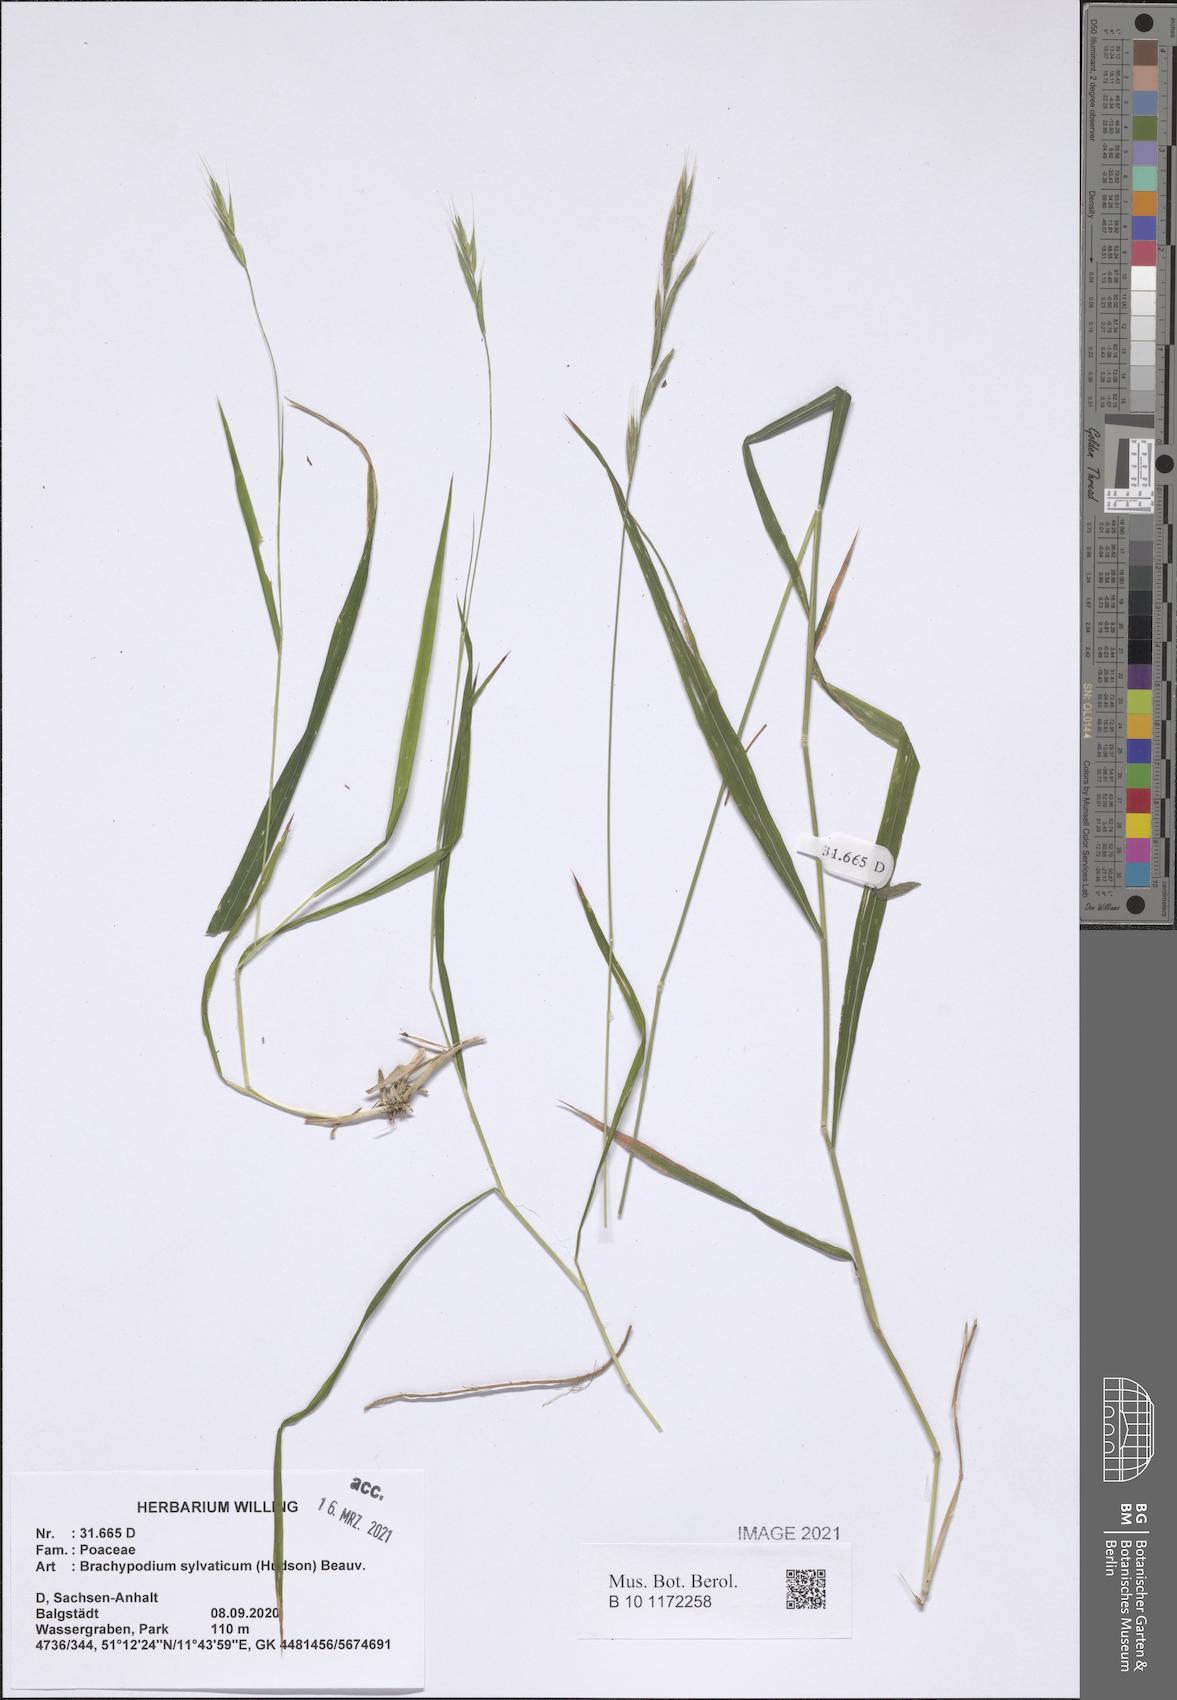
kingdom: Plantae
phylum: Tracheophyta
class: Liliopsida
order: Poales
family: Poaceae
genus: Brachypodium
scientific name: Brachypodium sylvaticum
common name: False-brome
